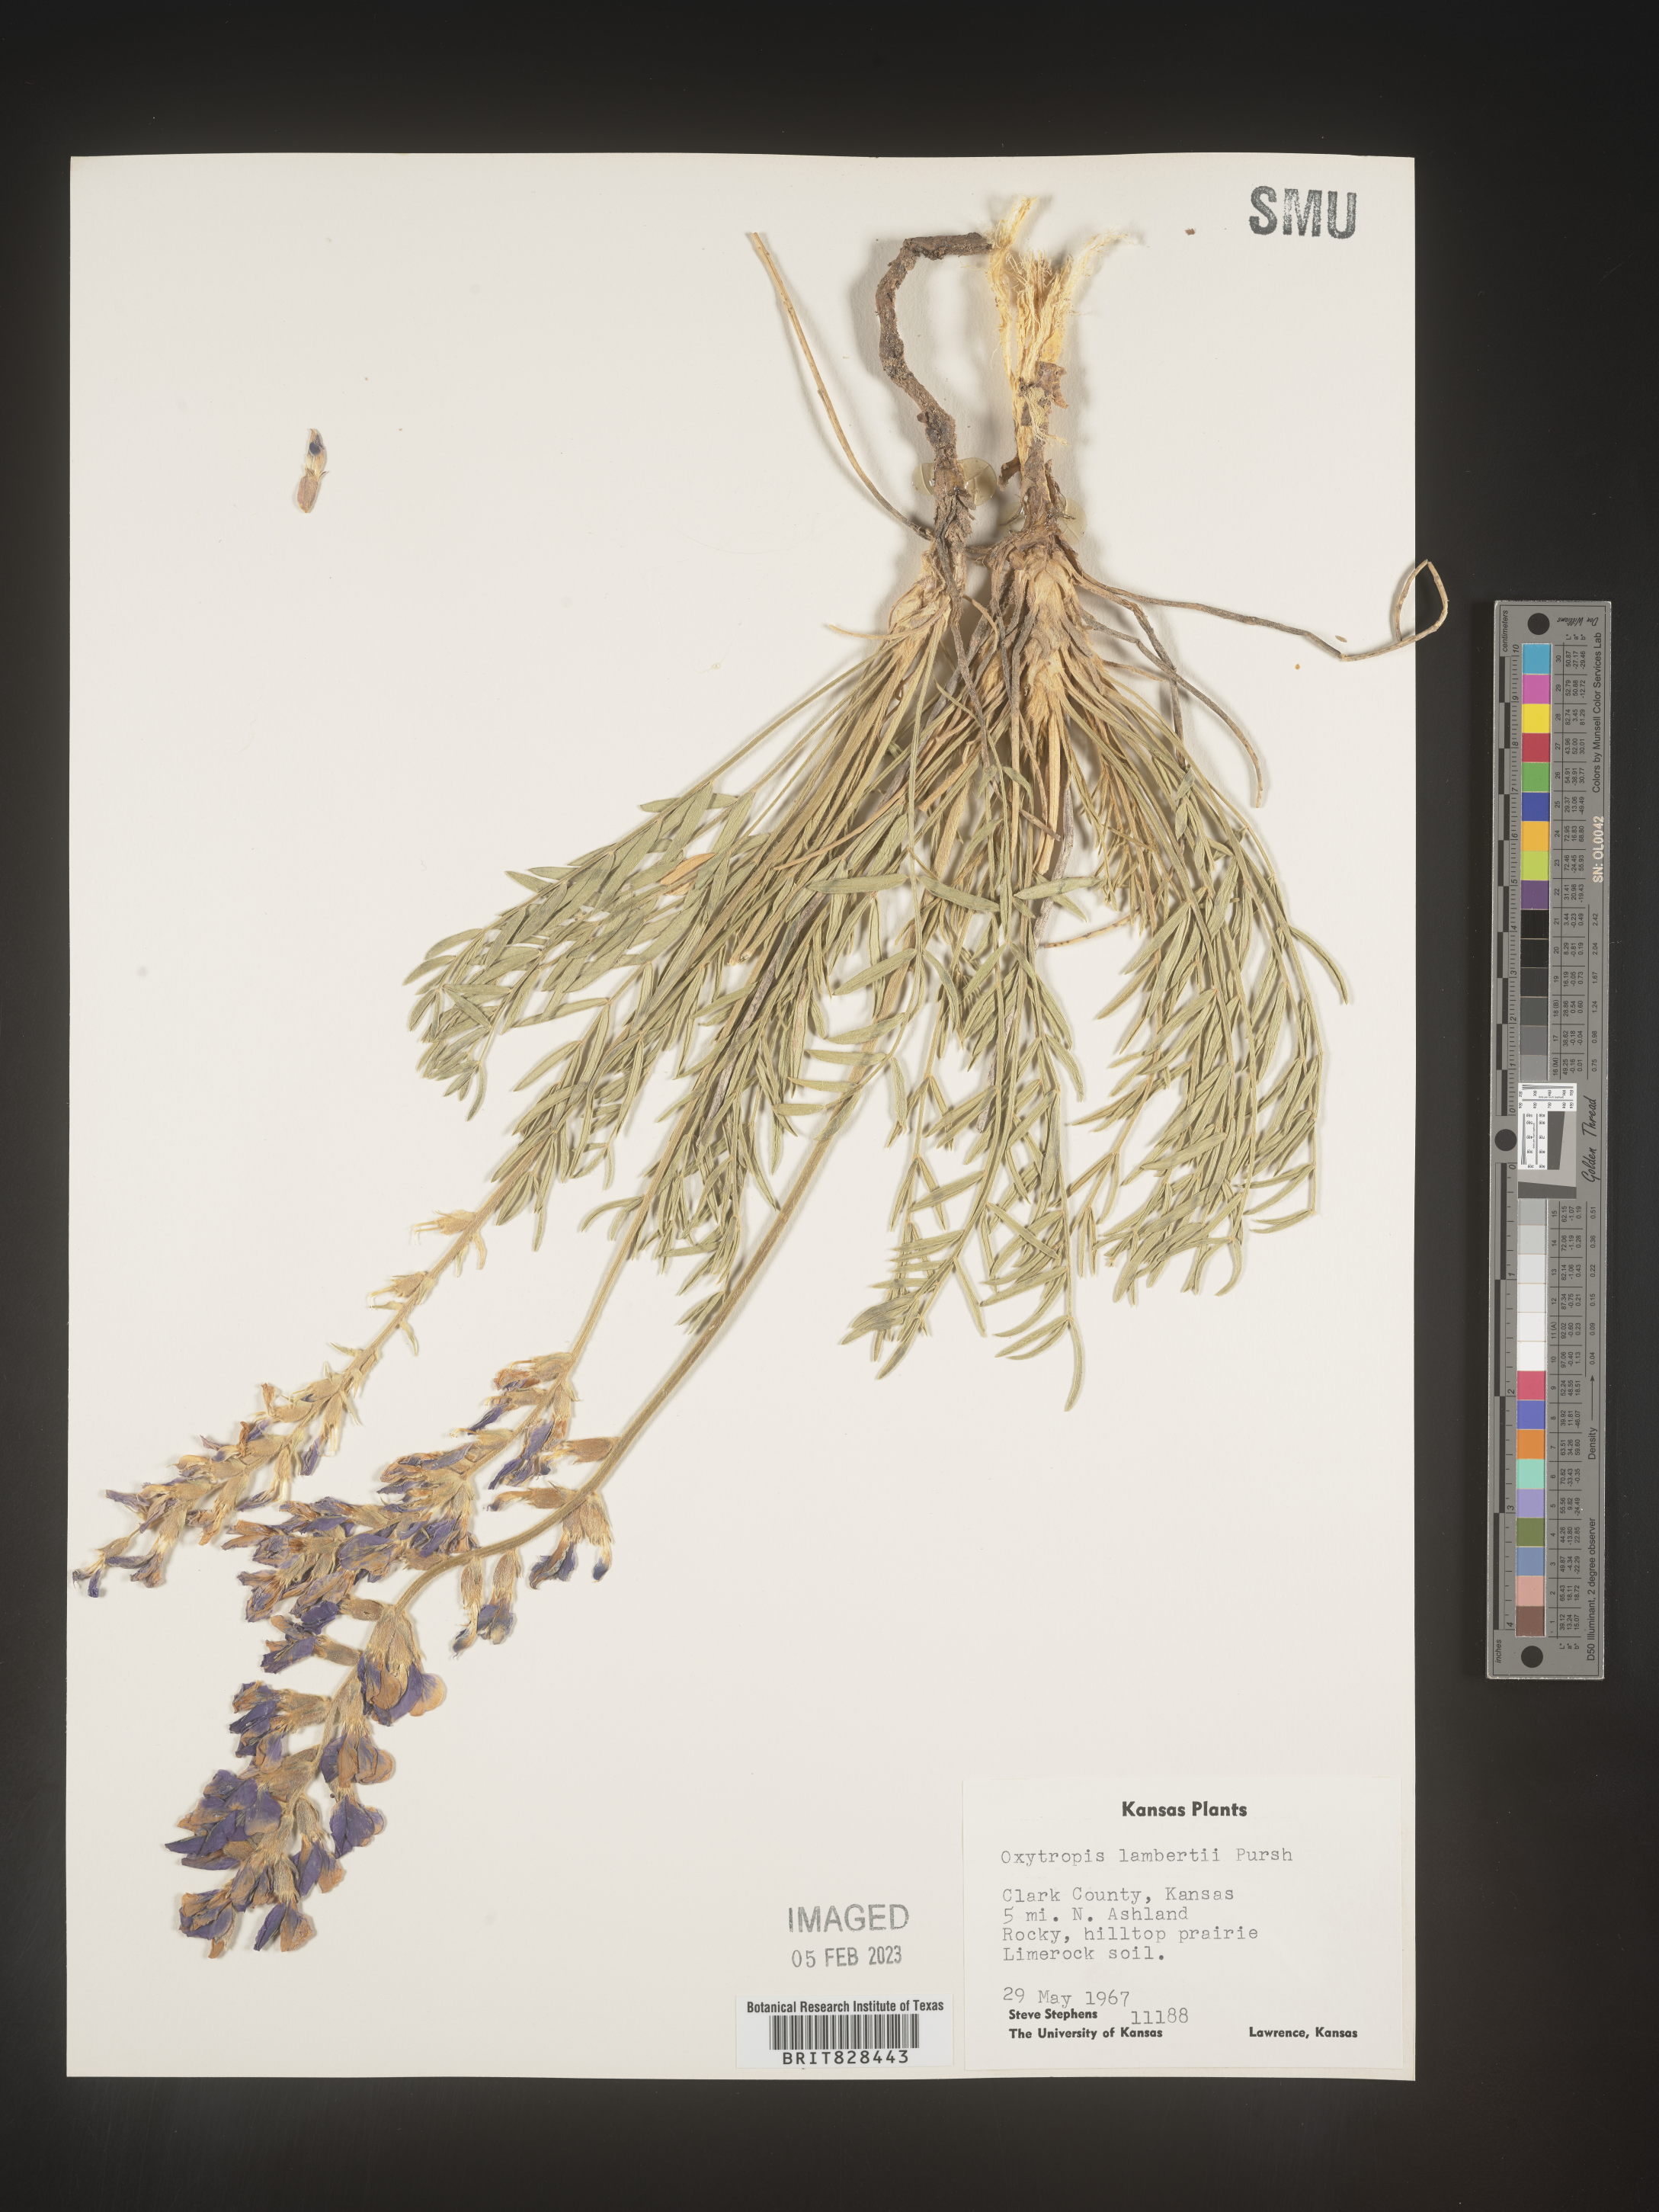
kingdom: Plantae
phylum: Tracheophyta
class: Magnoliopsida
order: Fabales
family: Fabaceae
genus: Oxytropis
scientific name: Oxytropis lambertii
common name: Purple locoweed
